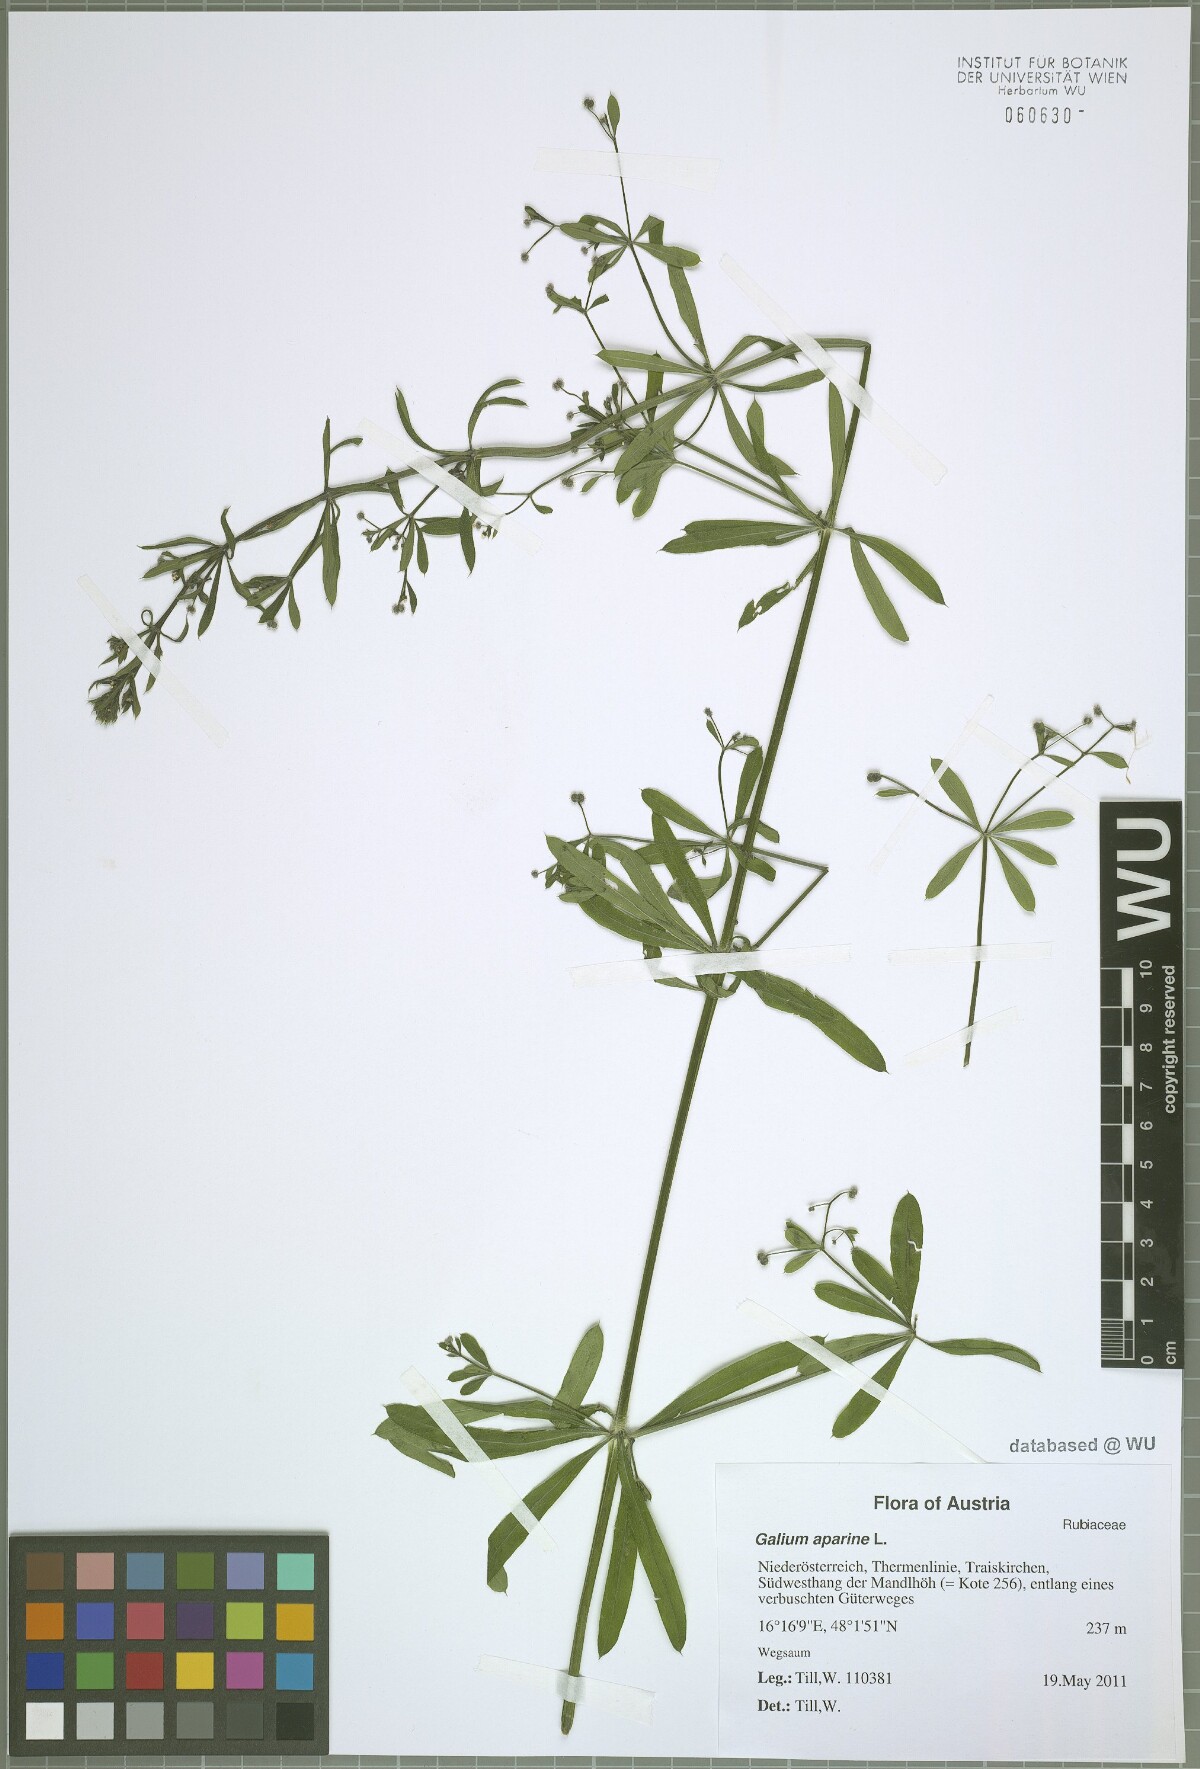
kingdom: Plantae
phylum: Tracheophyta
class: Magnoliopsida
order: Gentianales
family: Rubiaceae
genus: Galium
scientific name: Galium aparine
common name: Cleavers
